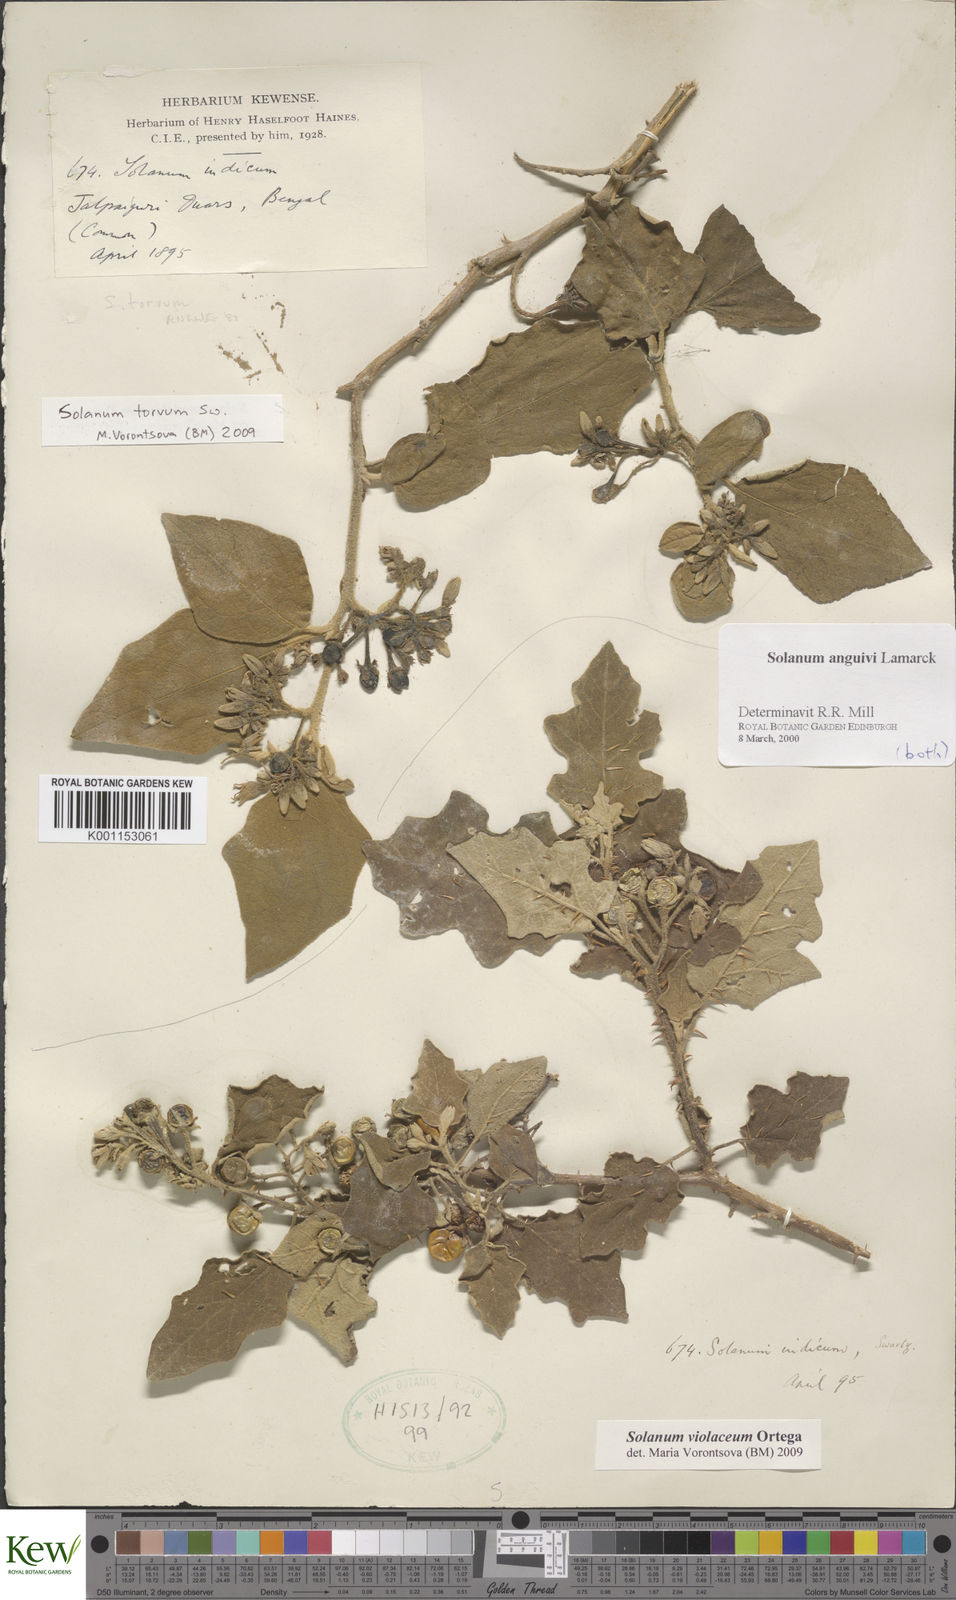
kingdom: Plantae
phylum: Tracheophyta
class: Magnoliopsida
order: Solanales
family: Solanaceae
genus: Solanum
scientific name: Solanum torvum
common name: Turkey berry
